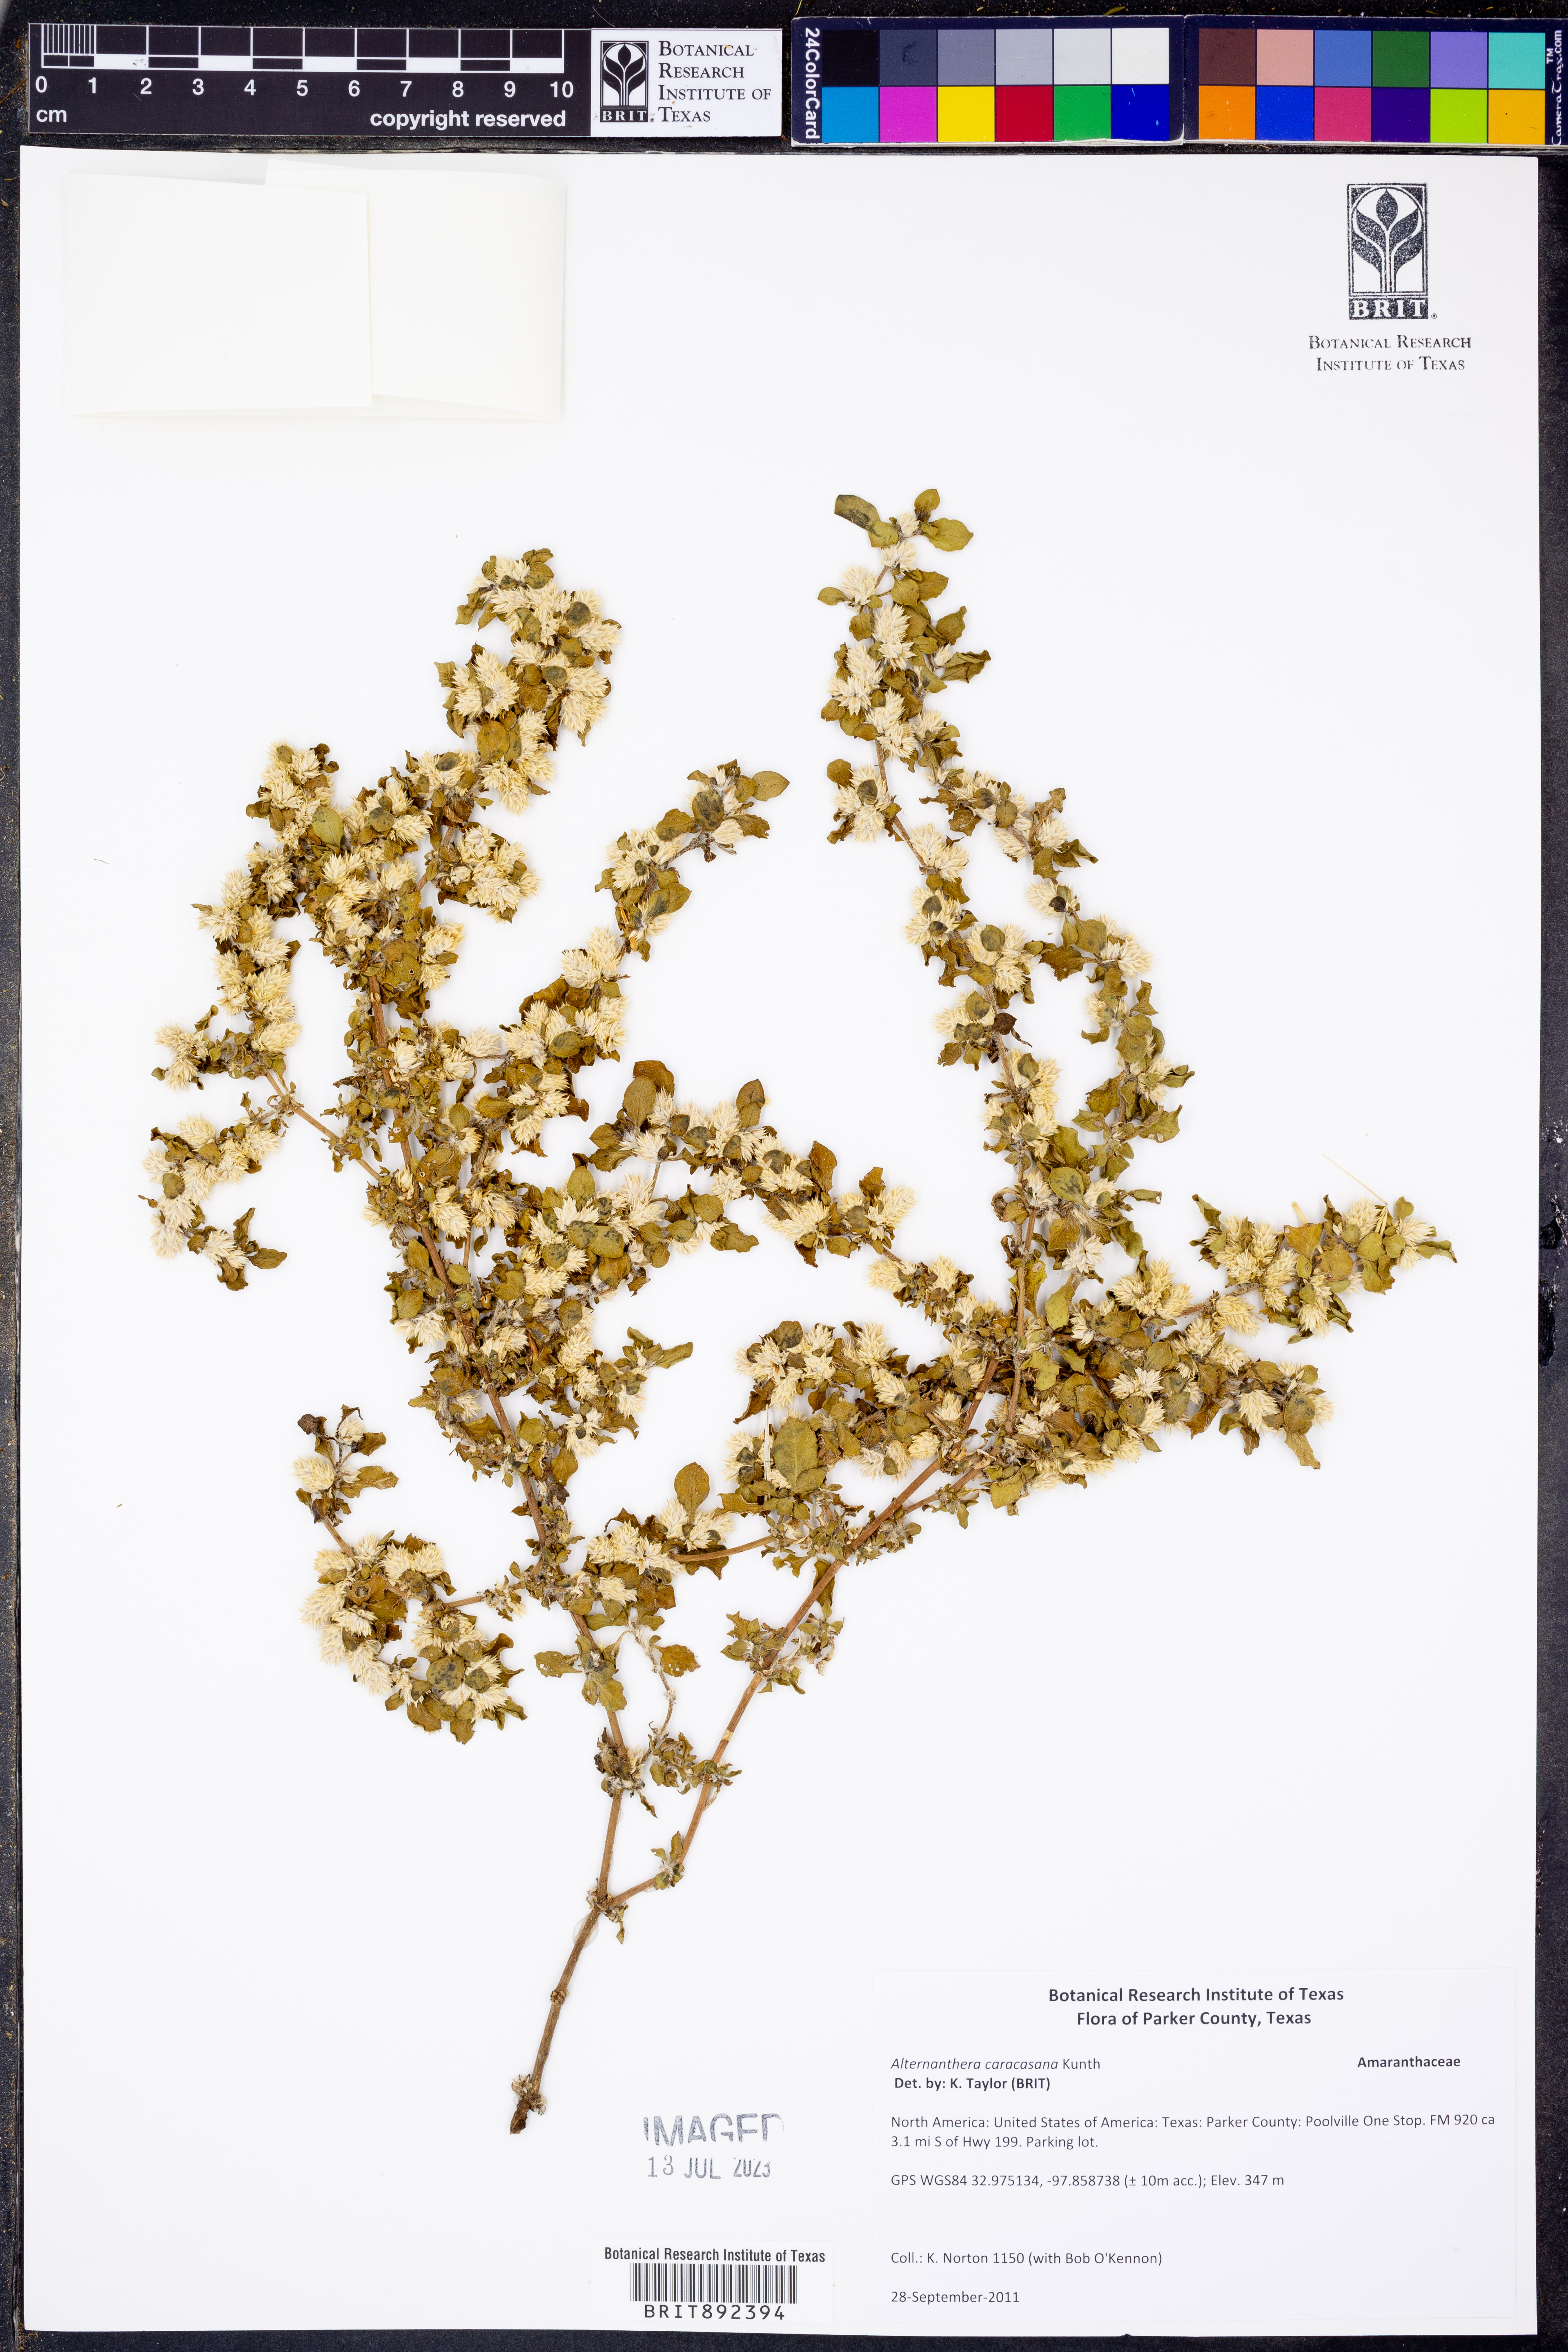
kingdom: Plantae
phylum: Tracheophyta
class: Magnoliopsida
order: Caryophyllales
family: Amaranthaceae
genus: Alternanthera
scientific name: Alternanthera caracasana
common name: Washerwoman
